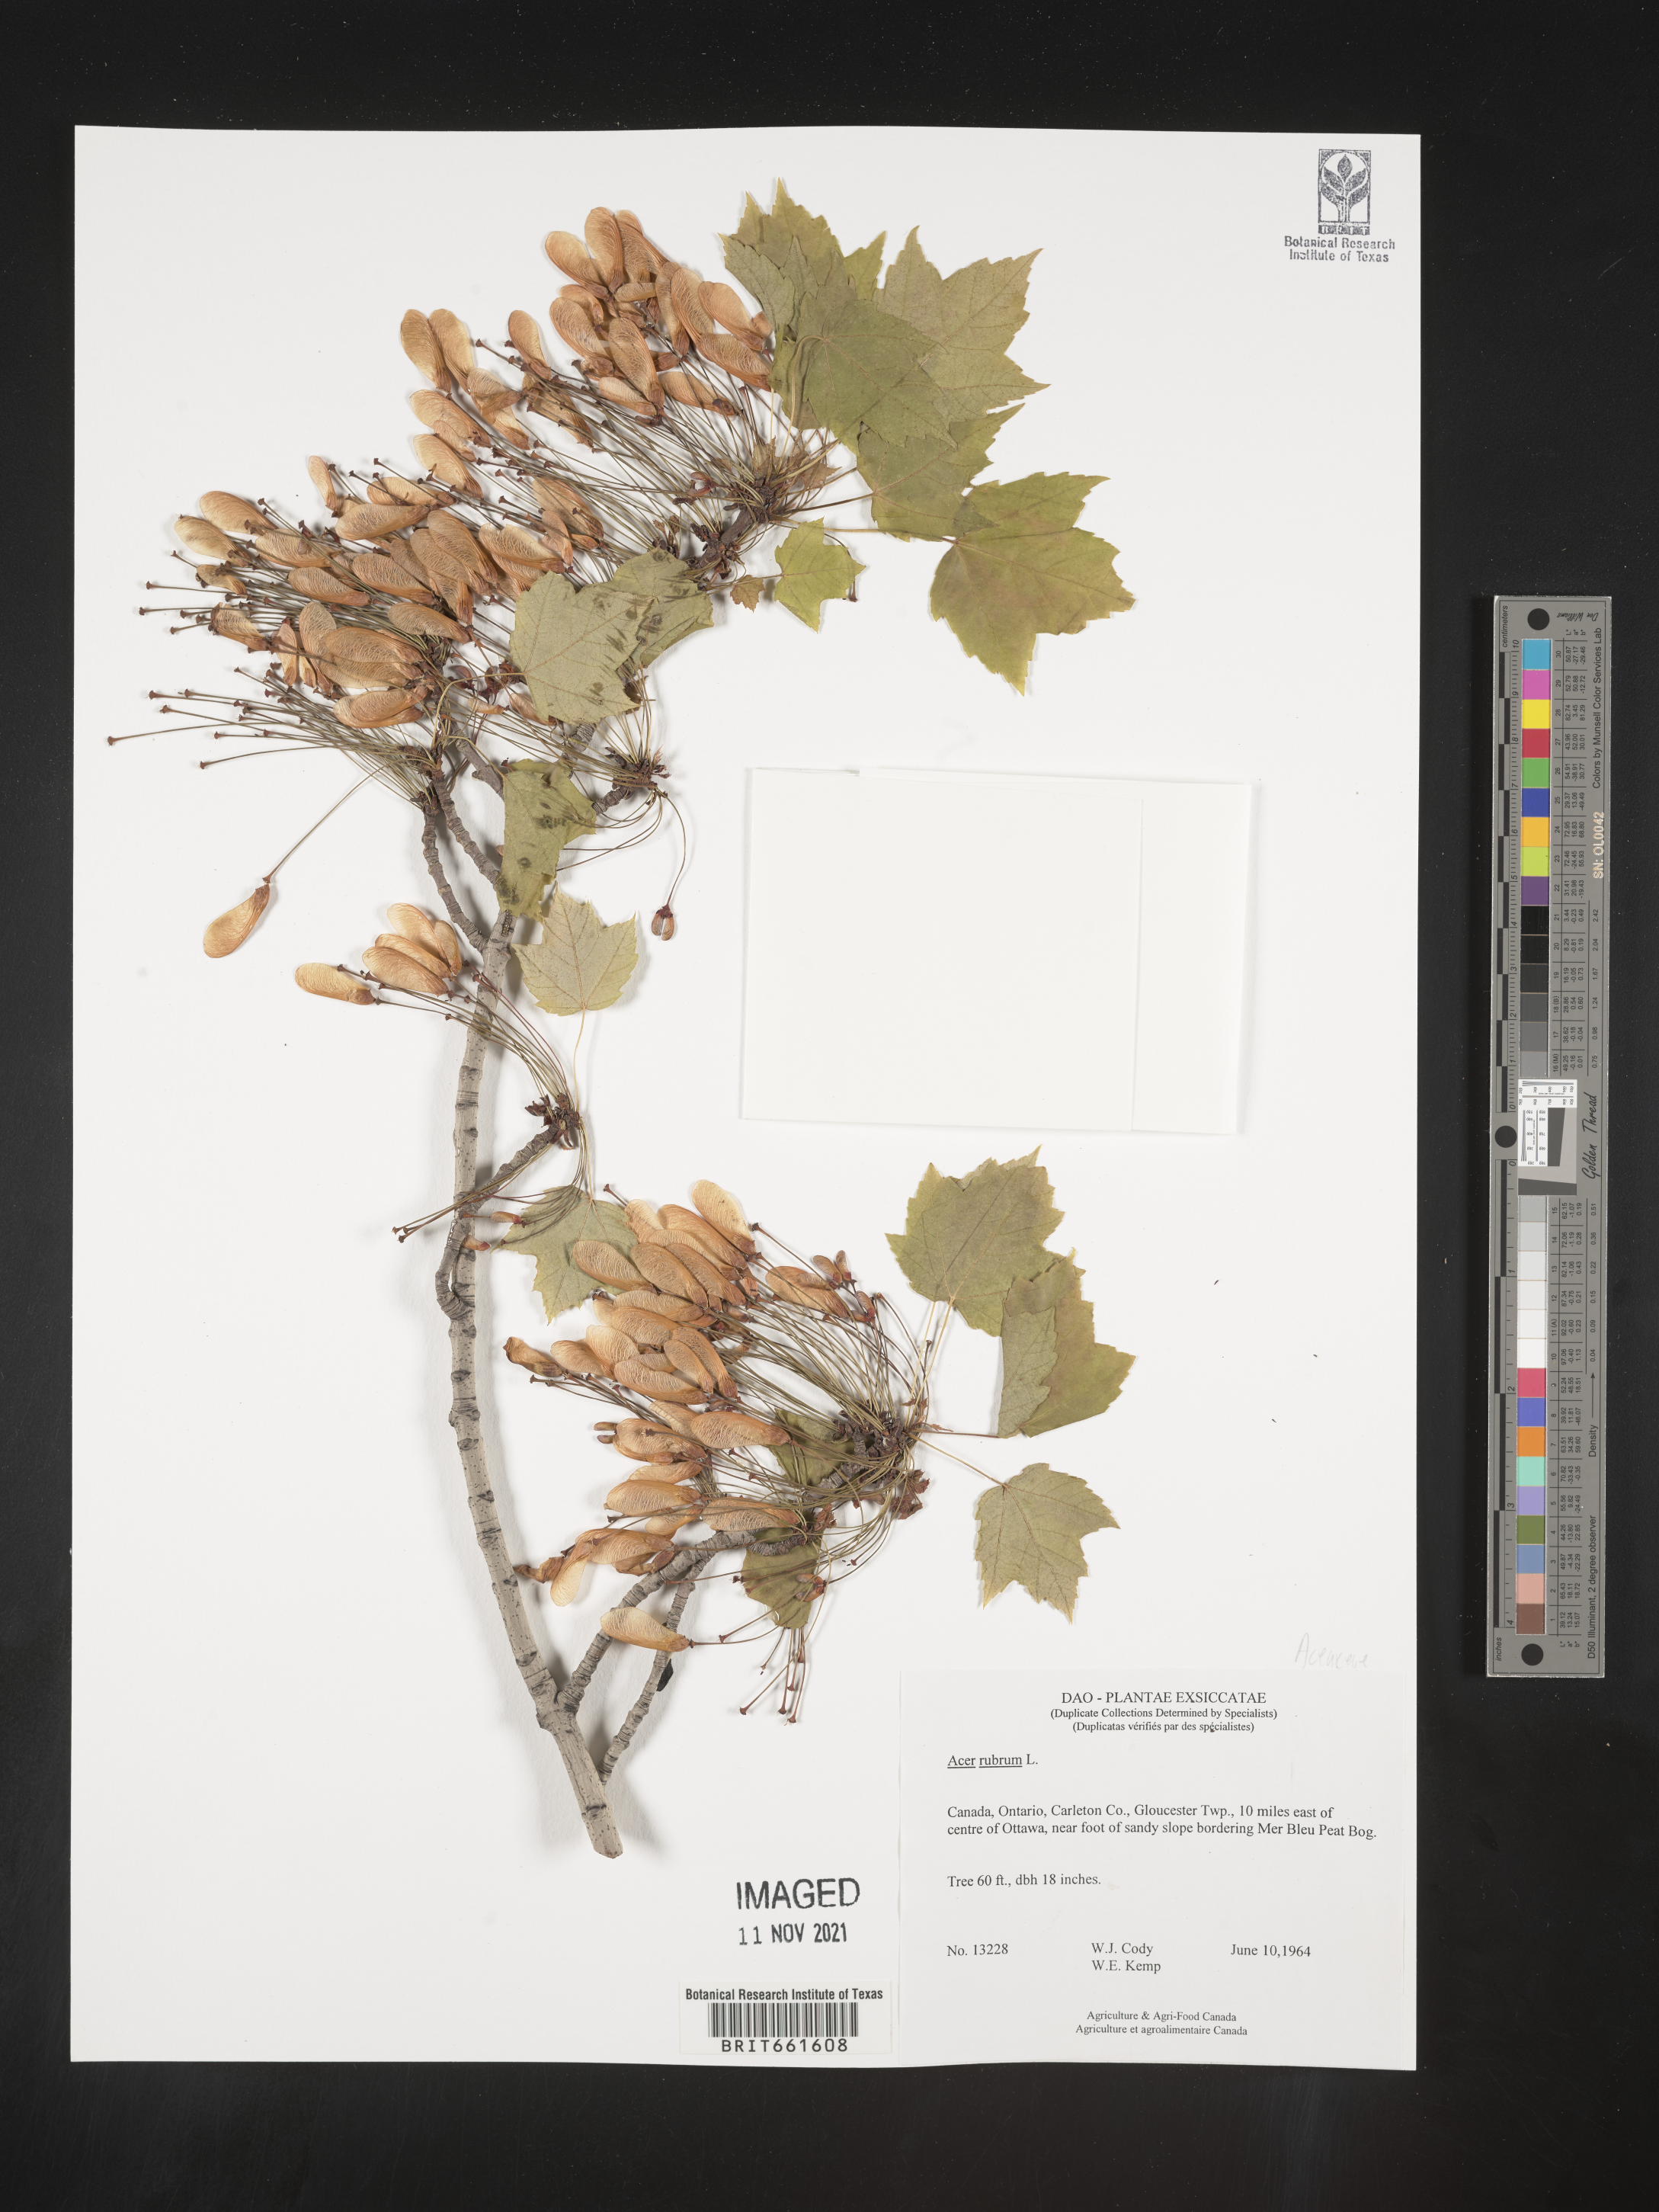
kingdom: Plantae
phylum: Tracheophyta
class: Magnoliopsida
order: Sapindales
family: Sapindaceae
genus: Acer
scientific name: Acer rubrum
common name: Red maple
